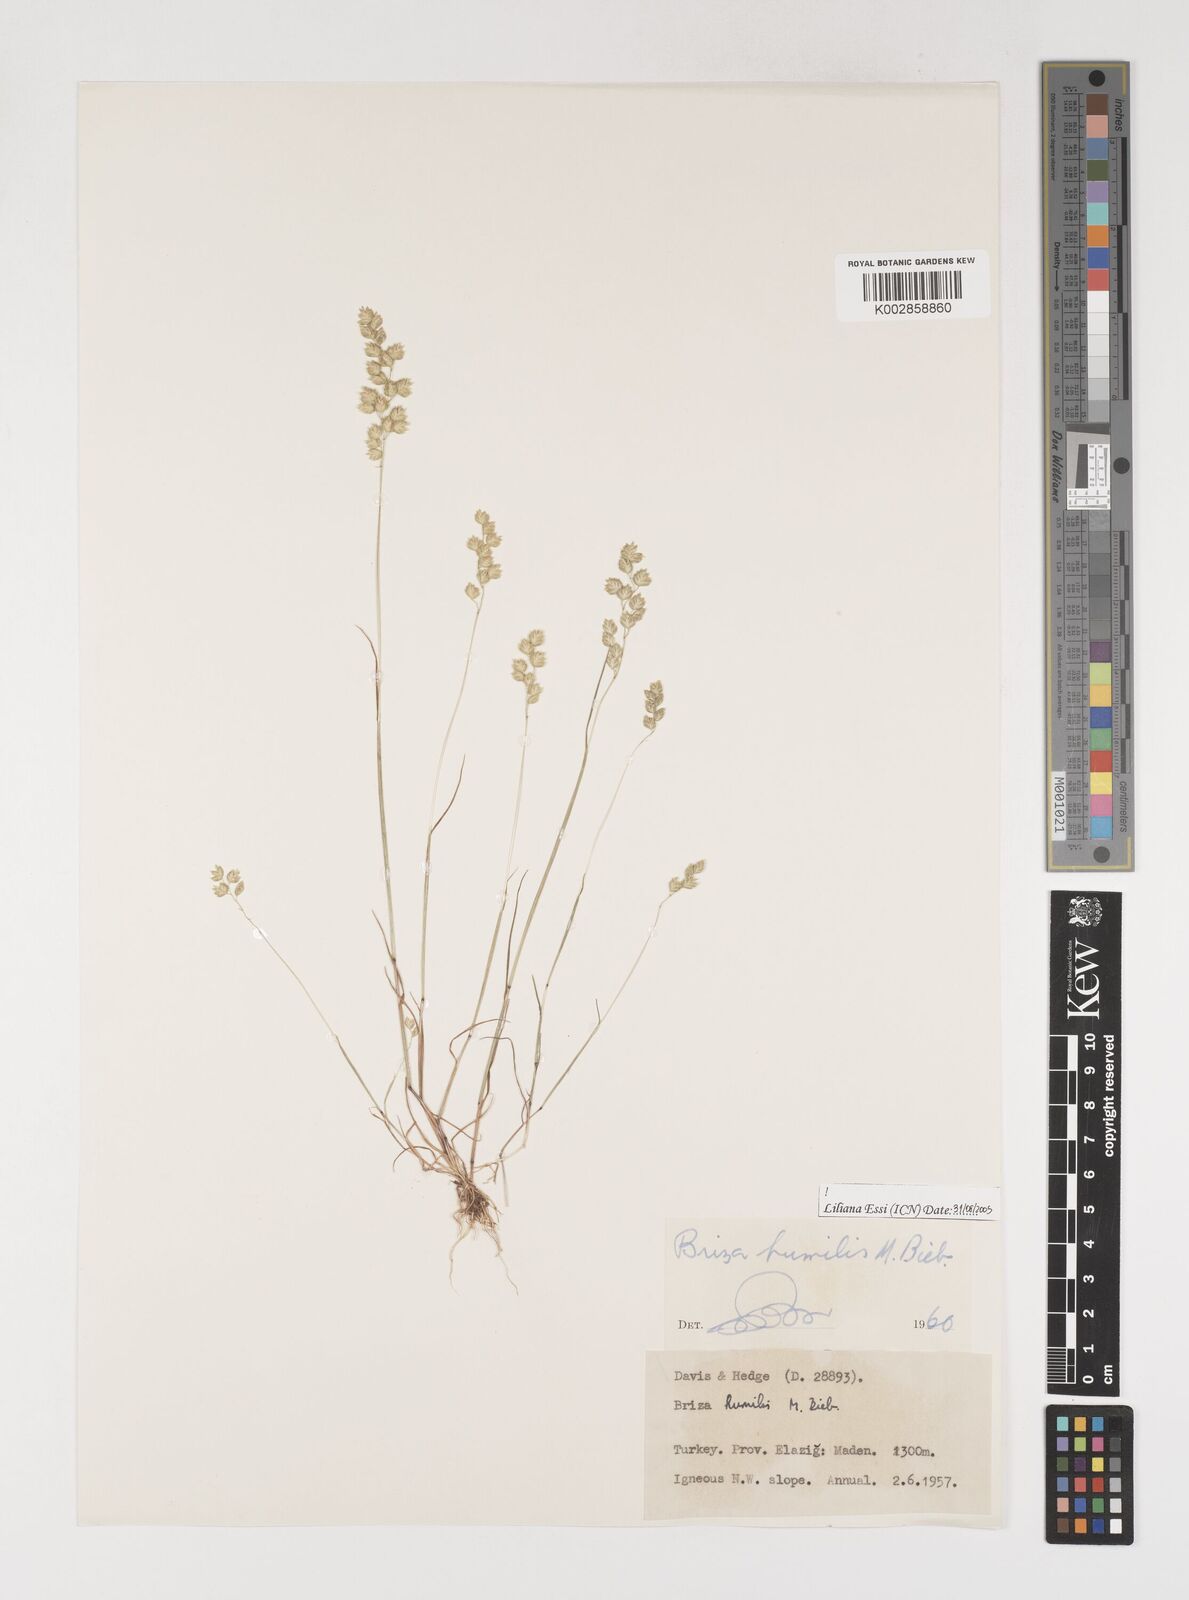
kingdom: Plantae
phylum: Tracheophyta
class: Liliopsida
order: Poales
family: Poaceae
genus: Briza
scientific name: Briza humilis
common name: Spiked quaking grass
